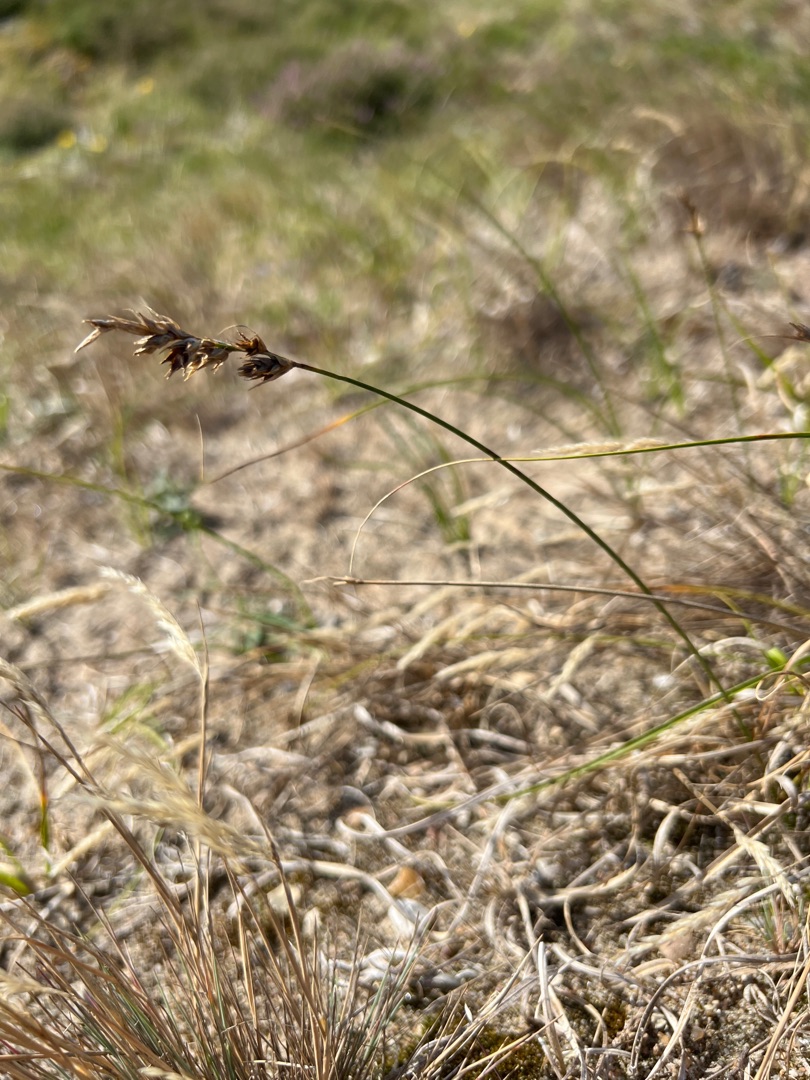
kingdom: Plantae
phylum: Tracheophyta
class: Liliopsida
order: Poales
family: Cyperaceae
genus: Carex
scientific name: Carex arenaria
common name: Sand-star
